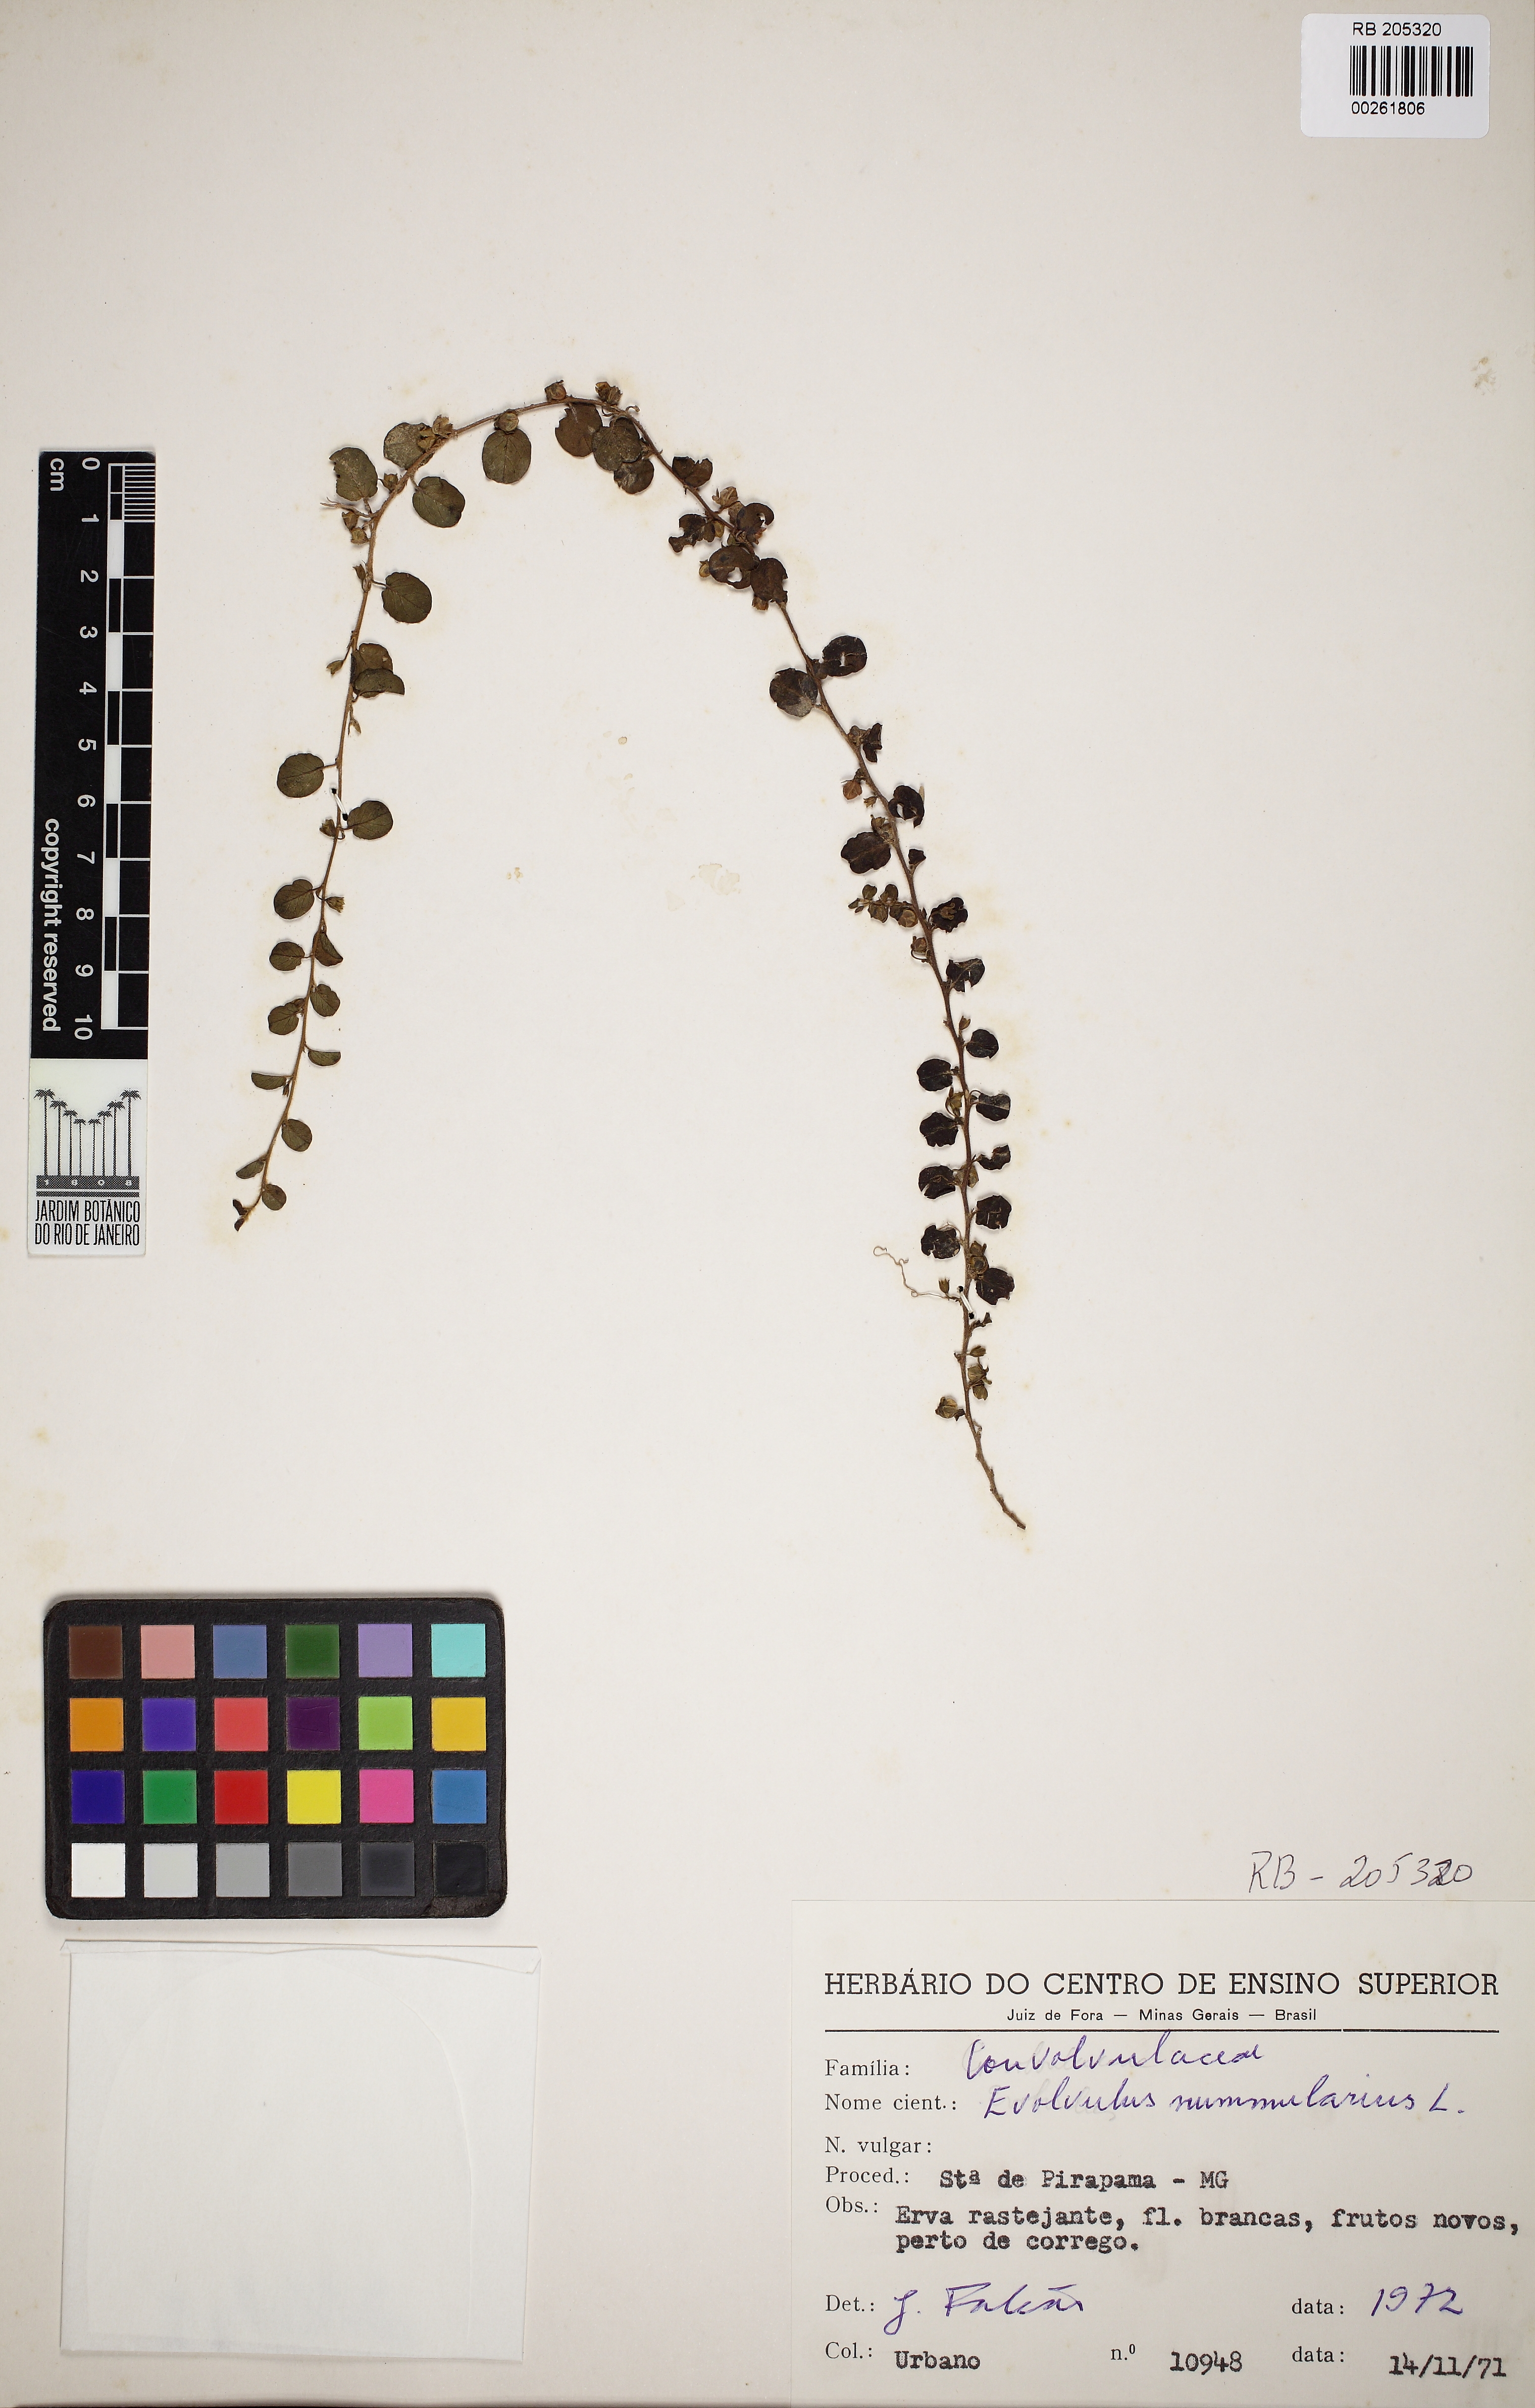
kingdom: Plantae
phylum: Tracheophyta
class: Magnoliopsida
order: Solanales
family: Convolvulaceae
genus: Evolvulus
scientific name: Evolvulus nummularius
